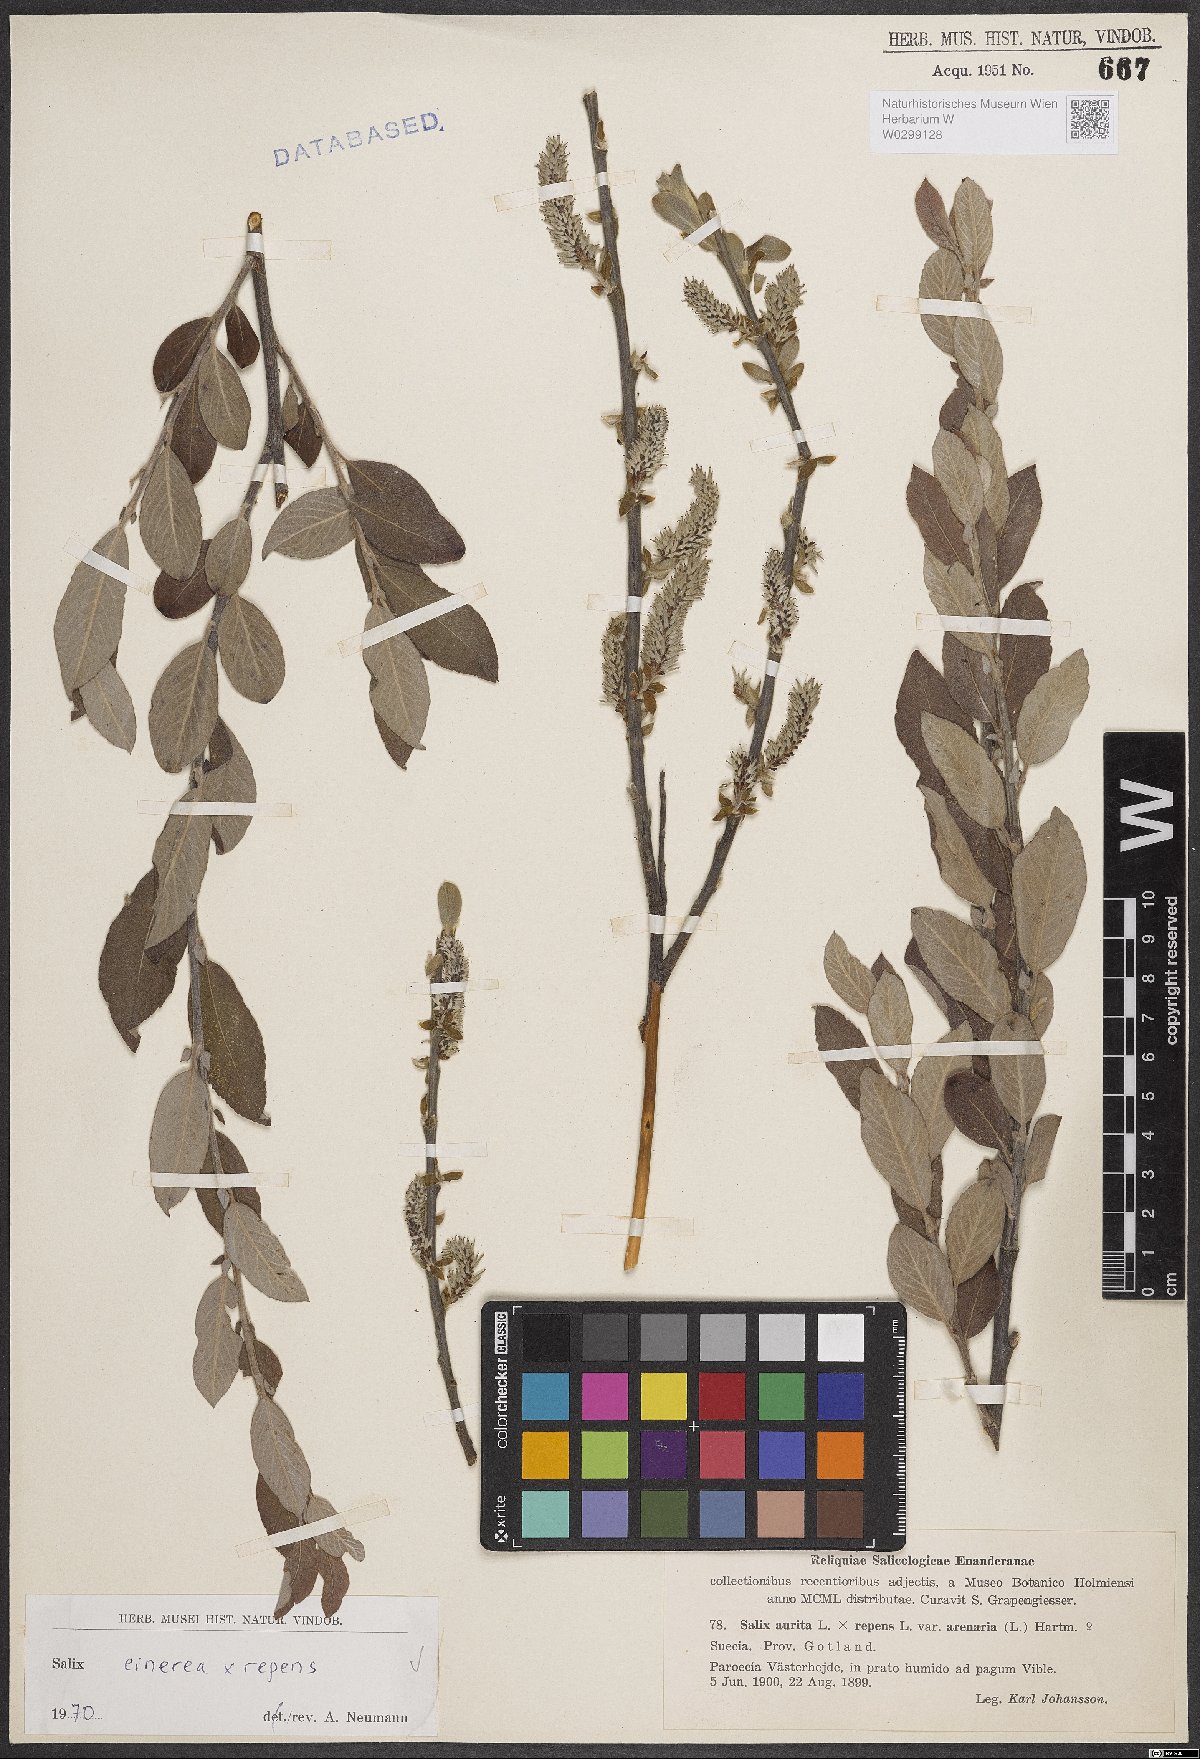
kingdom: Plantae
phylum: Tracheophyta
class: Magnoliopsida
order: Malpighiales
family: Salicaceae
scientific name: Salicaceae
